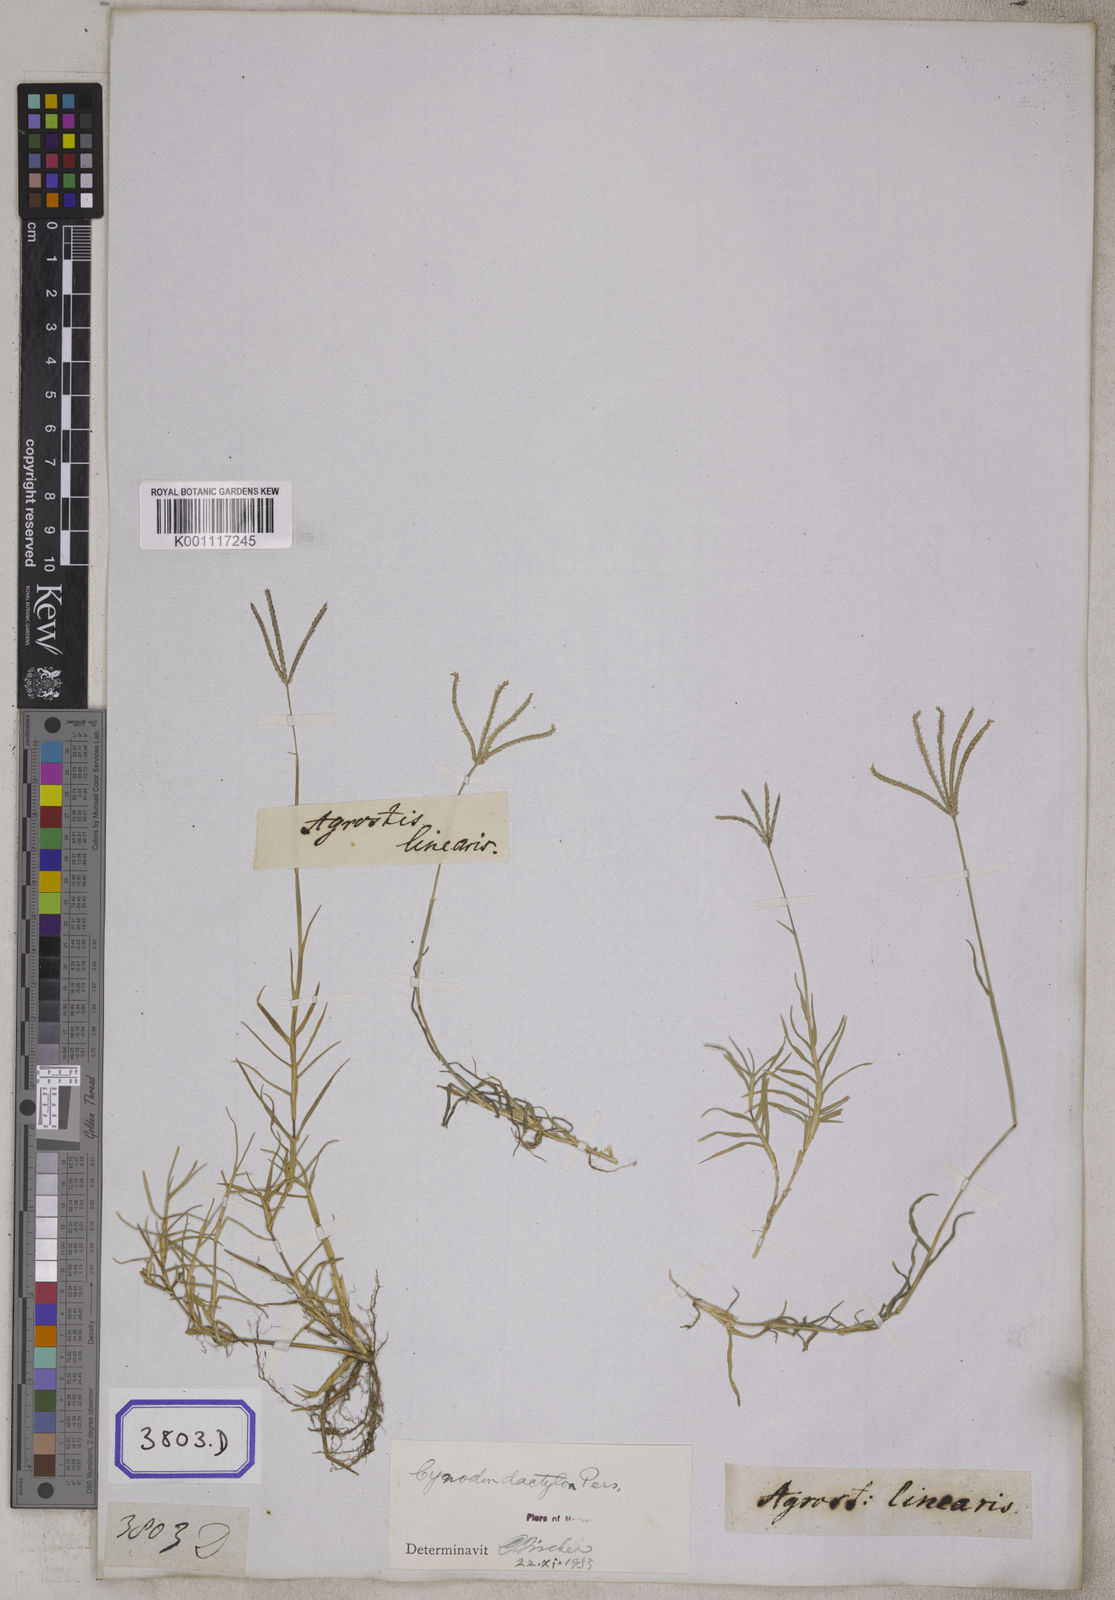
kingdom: Plantae
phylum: Tracheophyta
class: Liliopsida
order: Poales
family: Poaceae
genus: Cynodon
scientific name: Cynodon dactylon
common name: Bermuda grass
